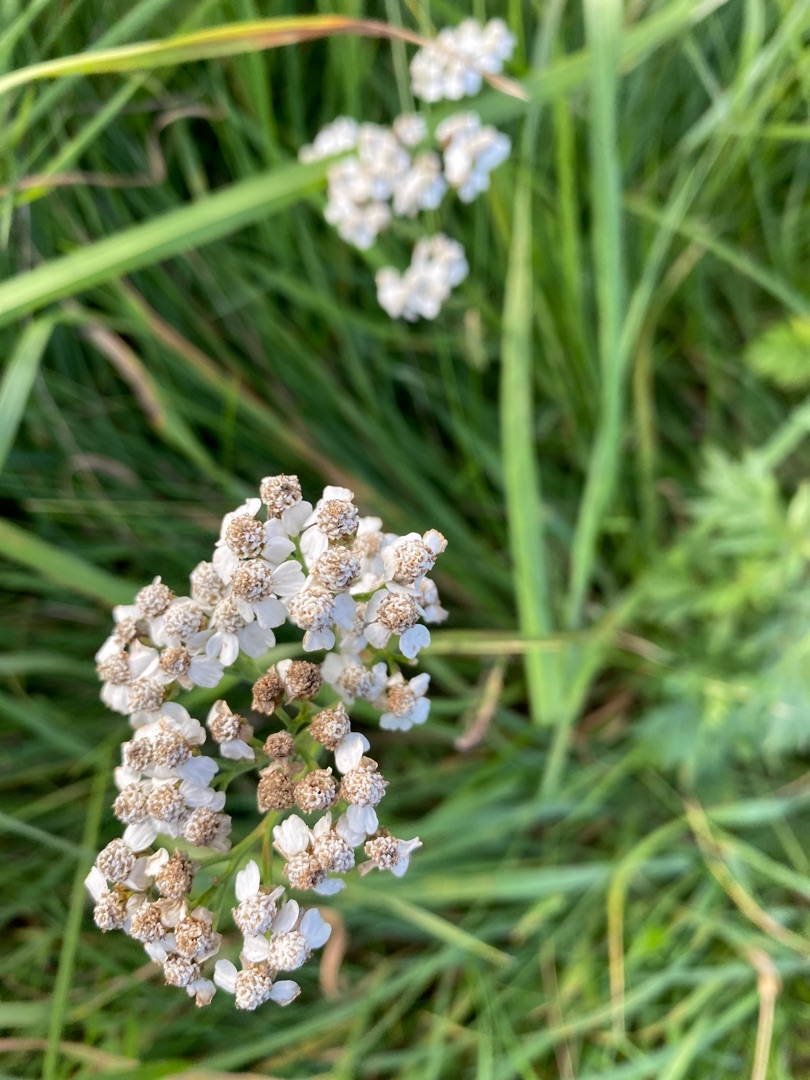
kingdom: Plantae
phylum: Tracheophyta
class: Magnoliopsida
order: Asterales
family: Asteraceae
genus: Achillea
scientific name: Achillea millefolium
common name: Almindelig røllike
